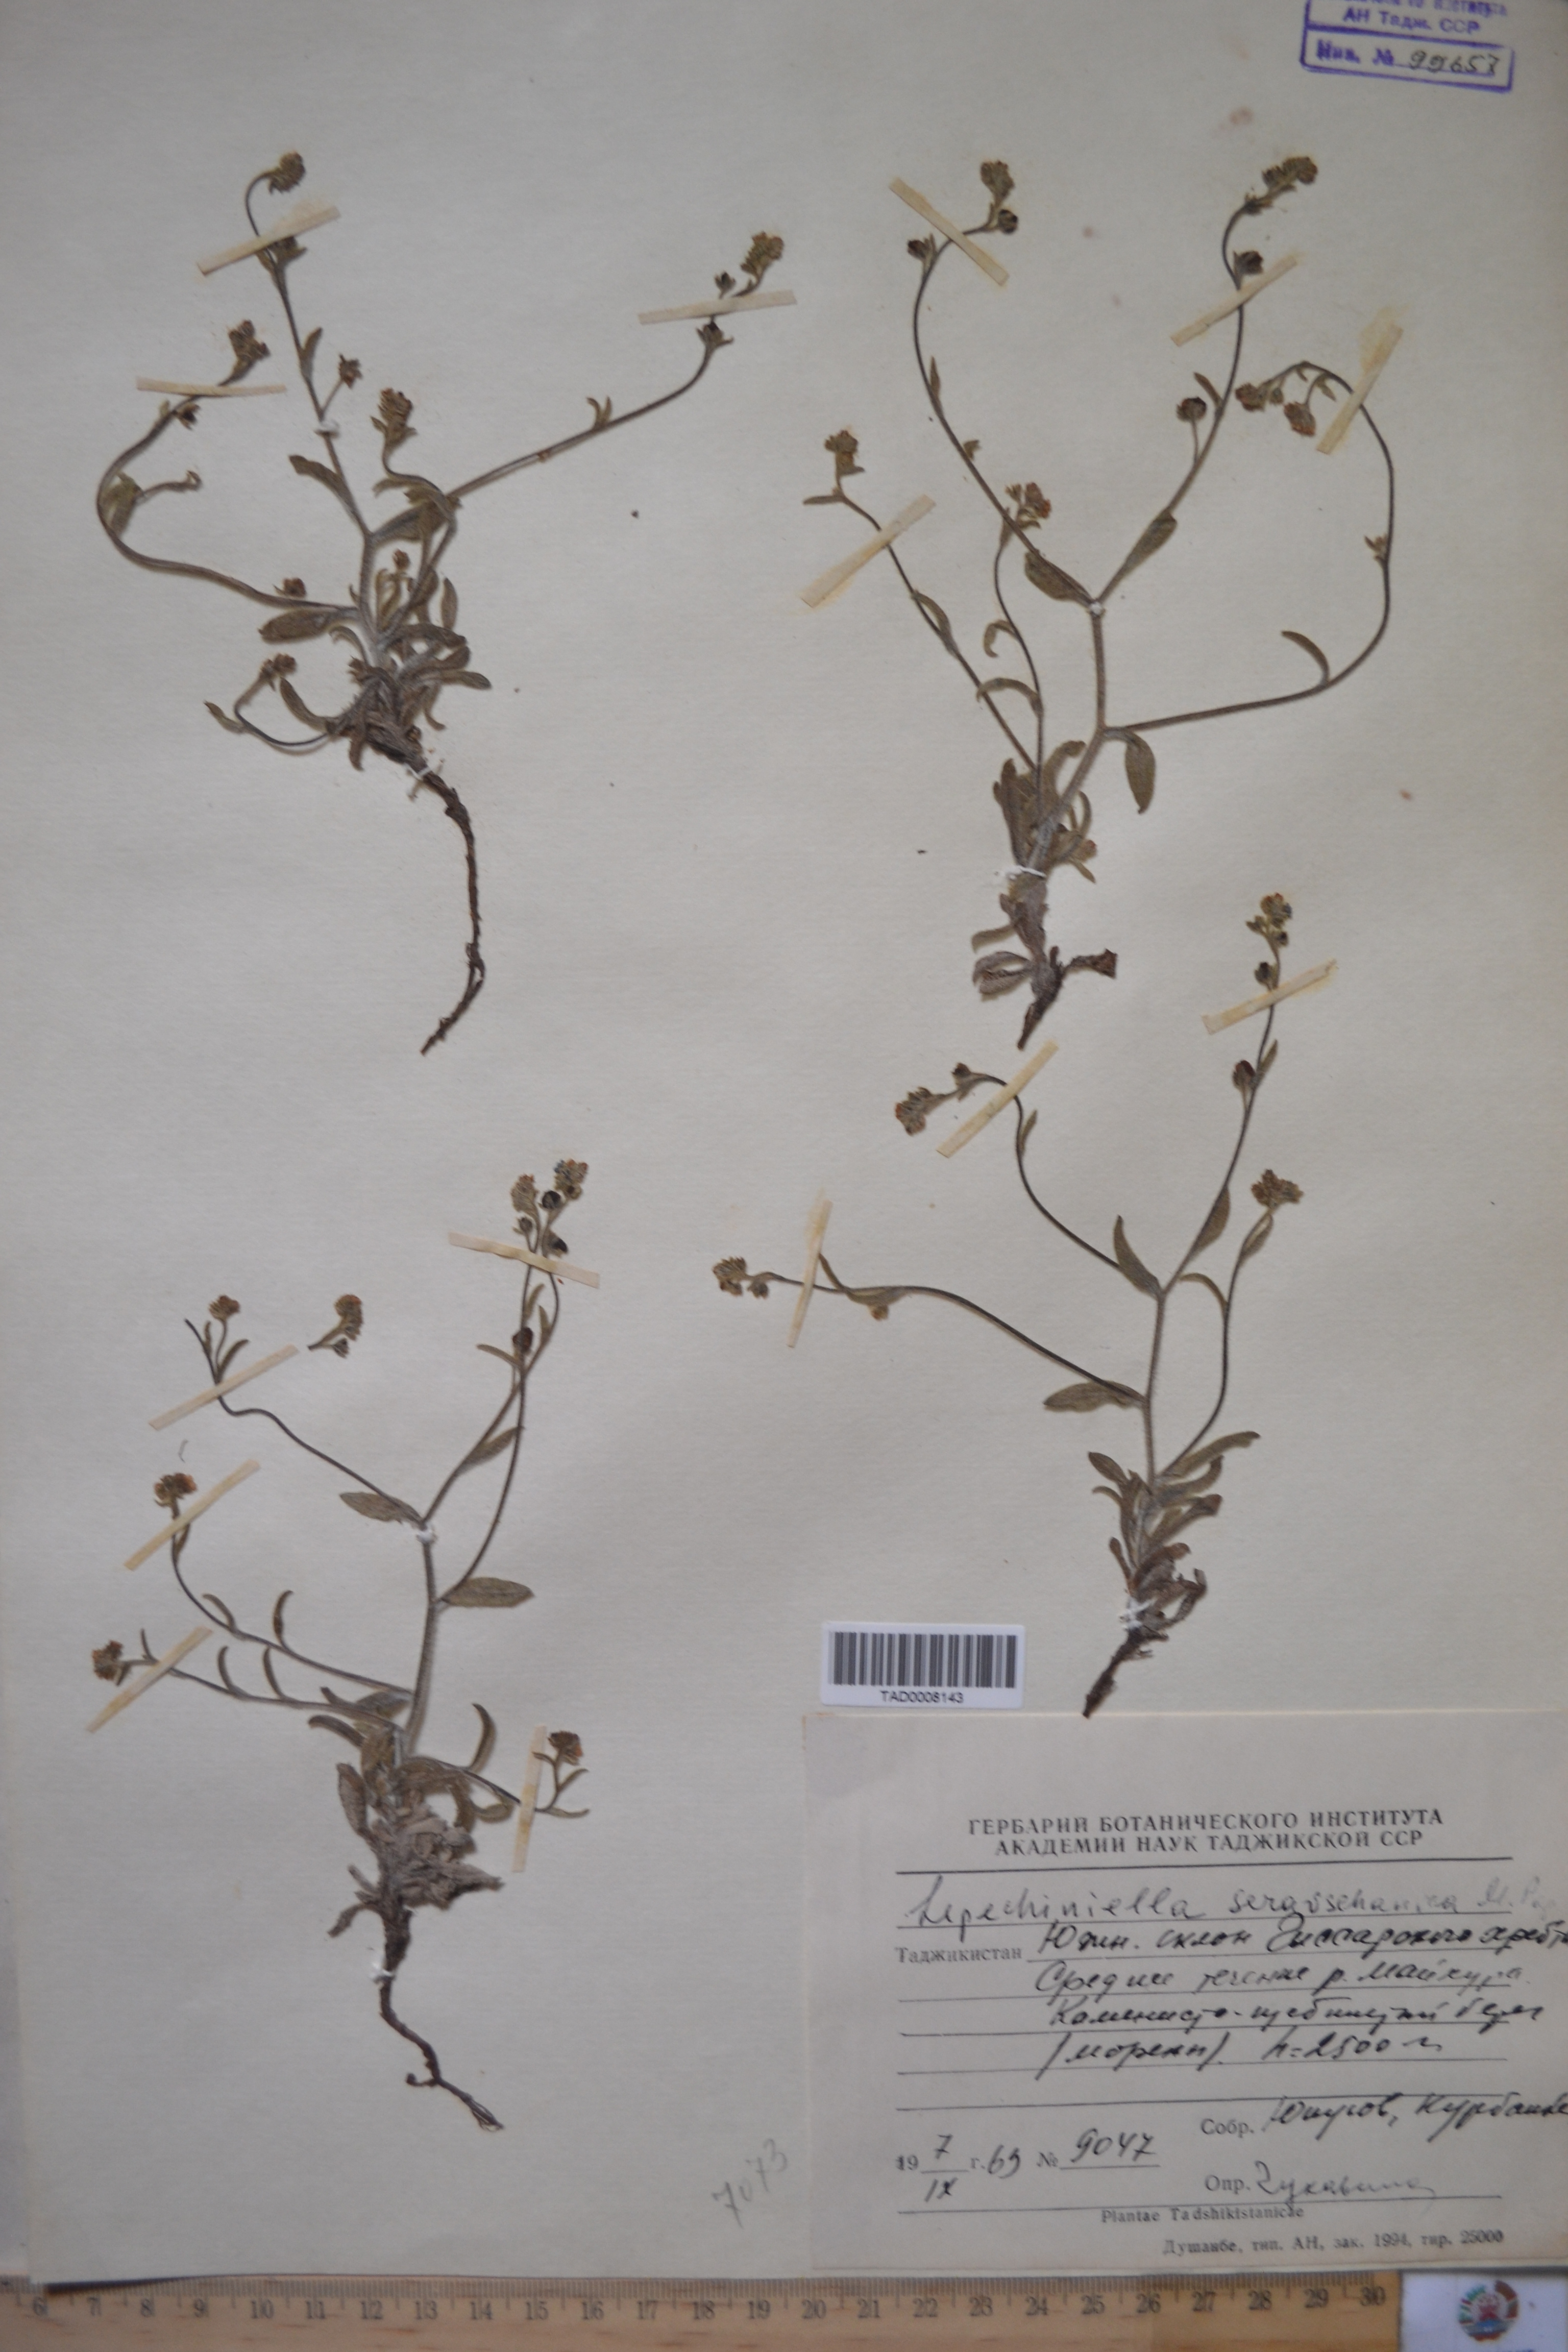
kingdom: Plantae
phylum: Tracheophyta
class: Magnoliopsida
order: Boraginales
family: Boraginaceae
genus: Lepechiniella
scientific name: Lepechiniella seravschanica
